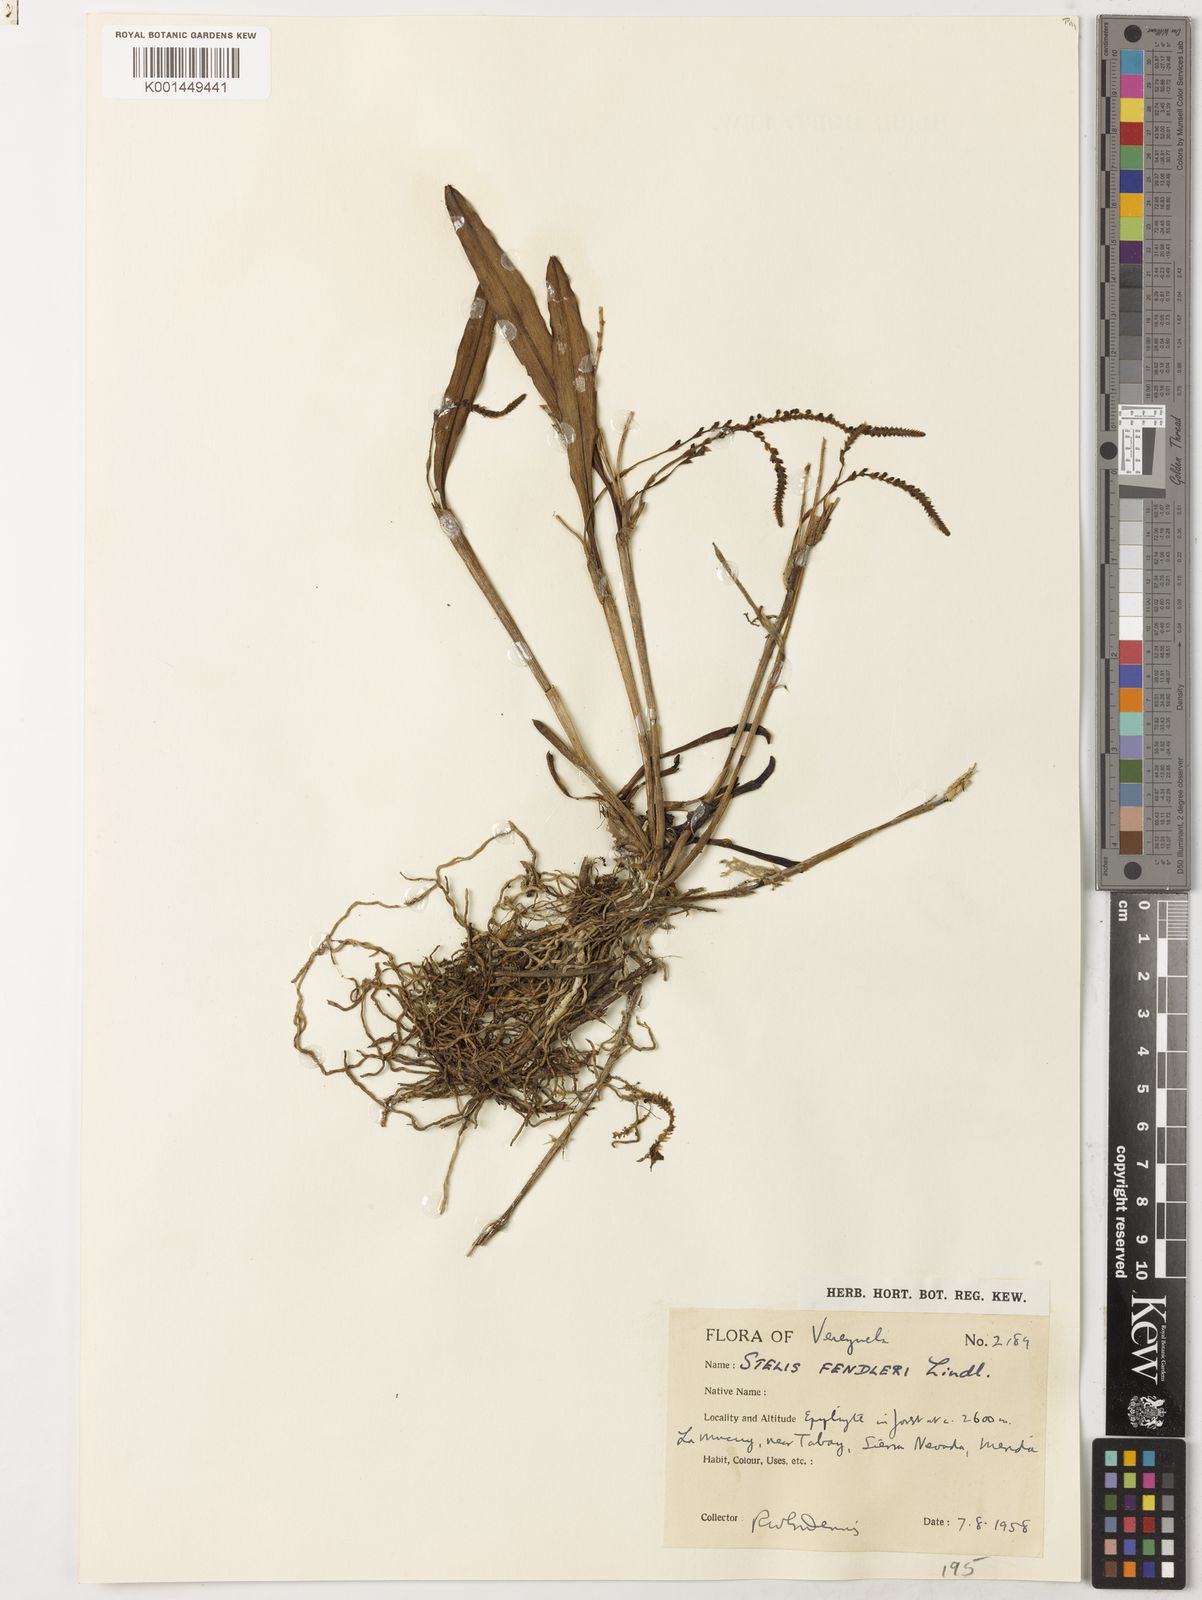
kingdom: Plantae
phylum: Tracheophyta
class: Liliopsida
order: Asparagales
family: Orchidaceae
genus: Stelis
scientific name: Stelis fendleri
